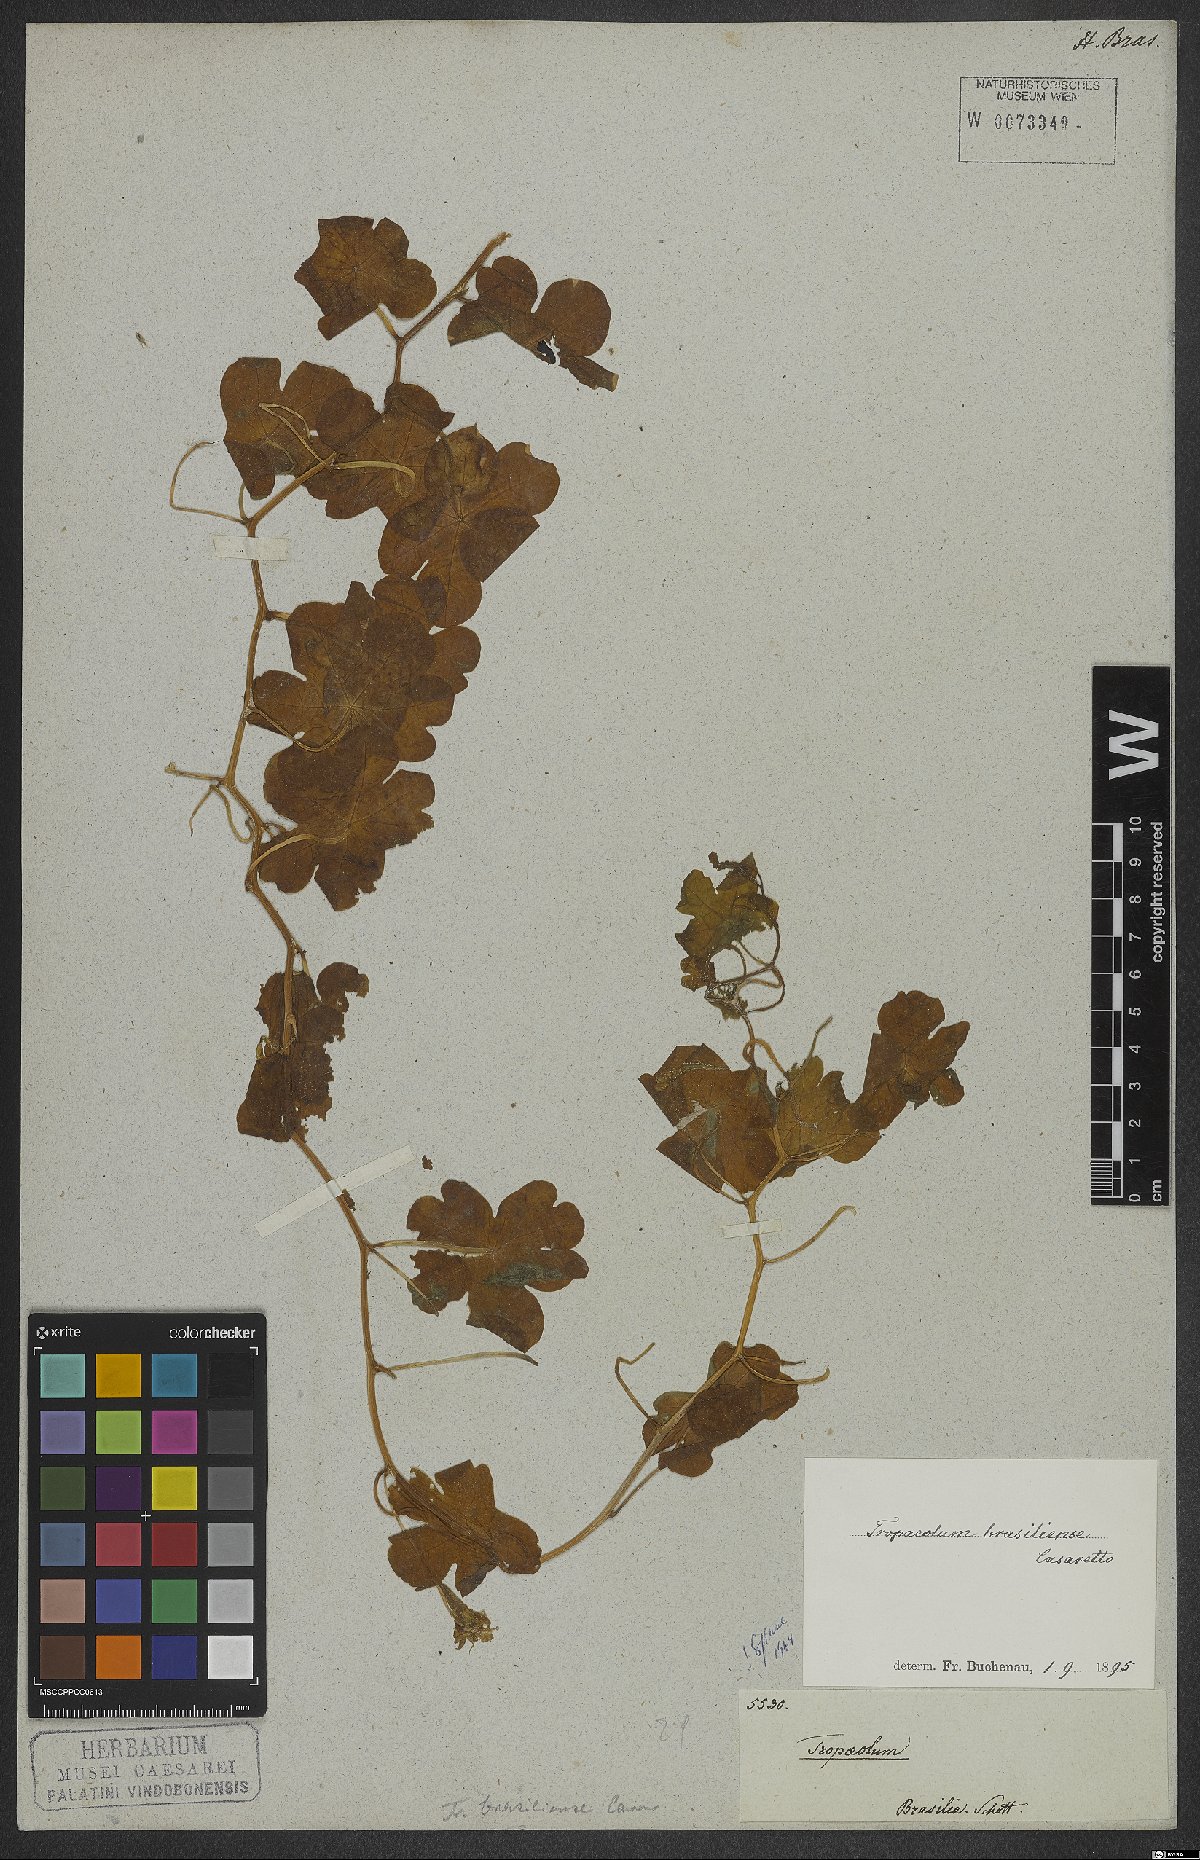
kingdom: Plantae
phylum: Tracheophyta
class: Magnoliopsida
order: Brassicales
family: Tropaeolaceae
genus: Tropaeolum
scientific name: Tropaeolum brasiliense
